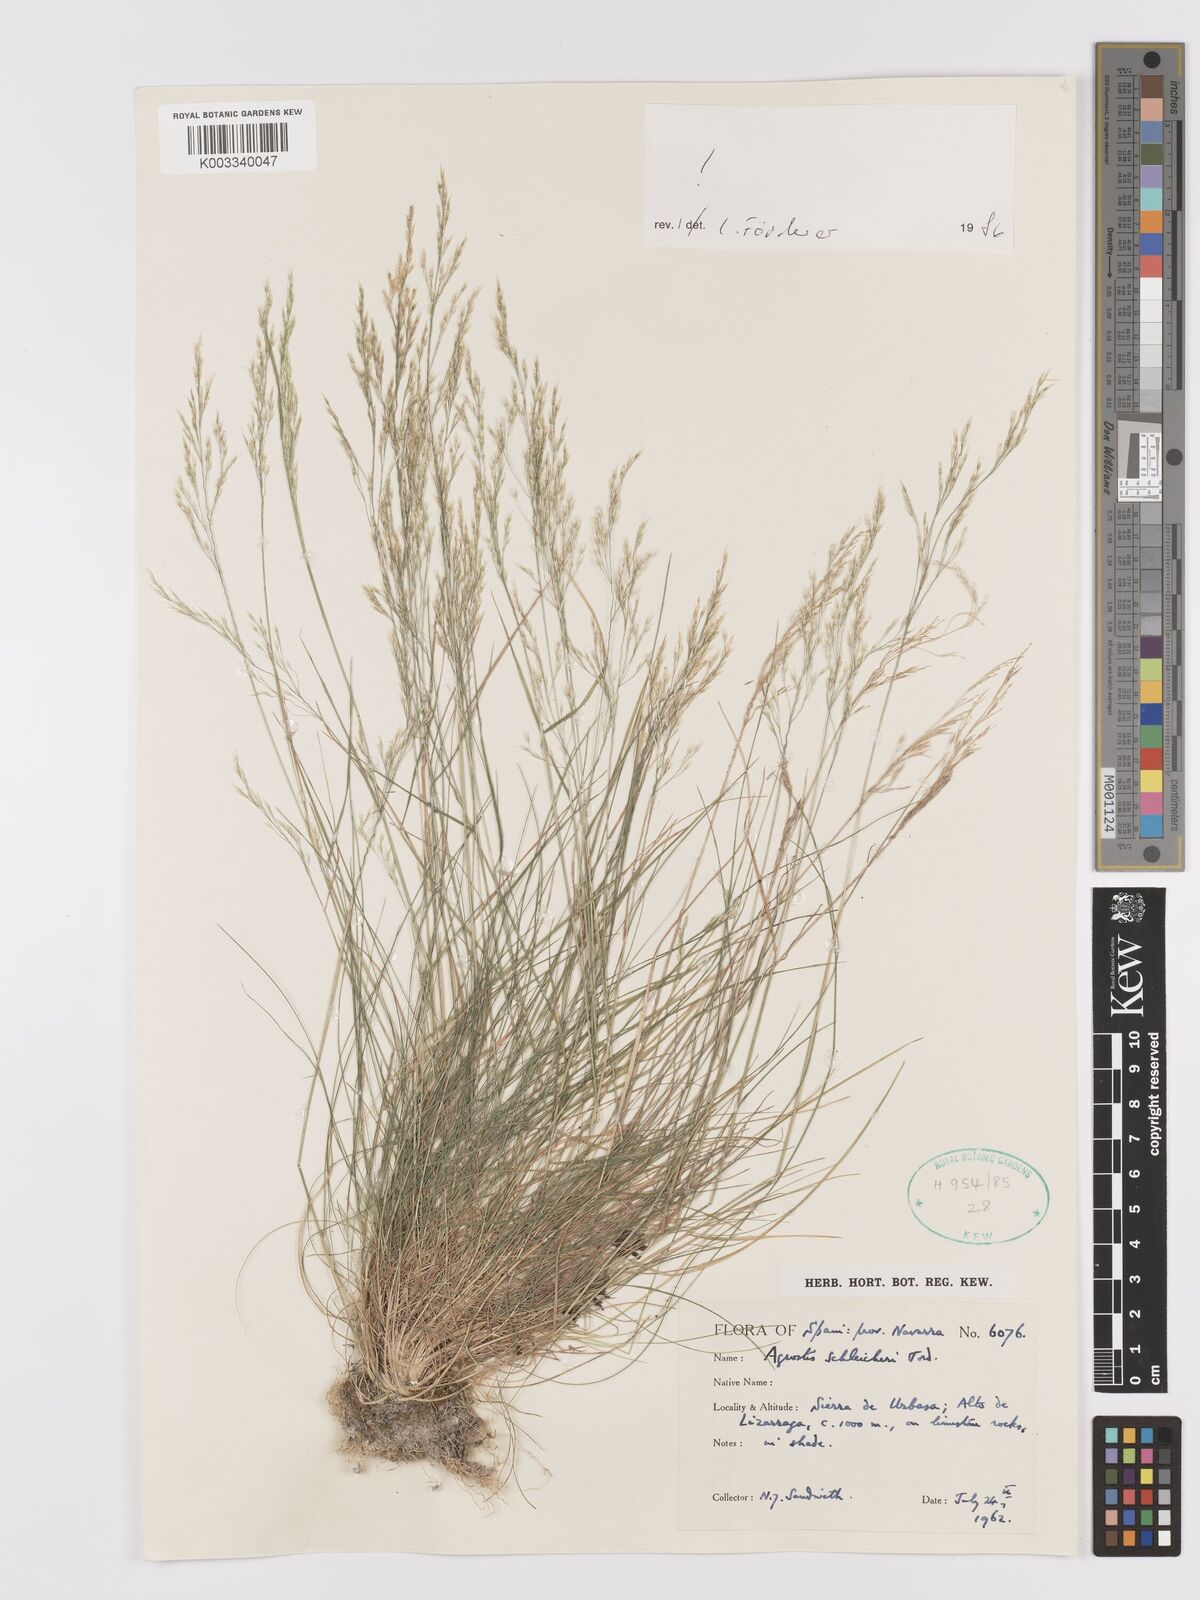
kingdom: Plantae
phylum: Tracheophyta
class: Liliopsida
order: Poales
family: Poaceae
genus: Alpagrostis
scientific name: Alpagrostis schleicheri
